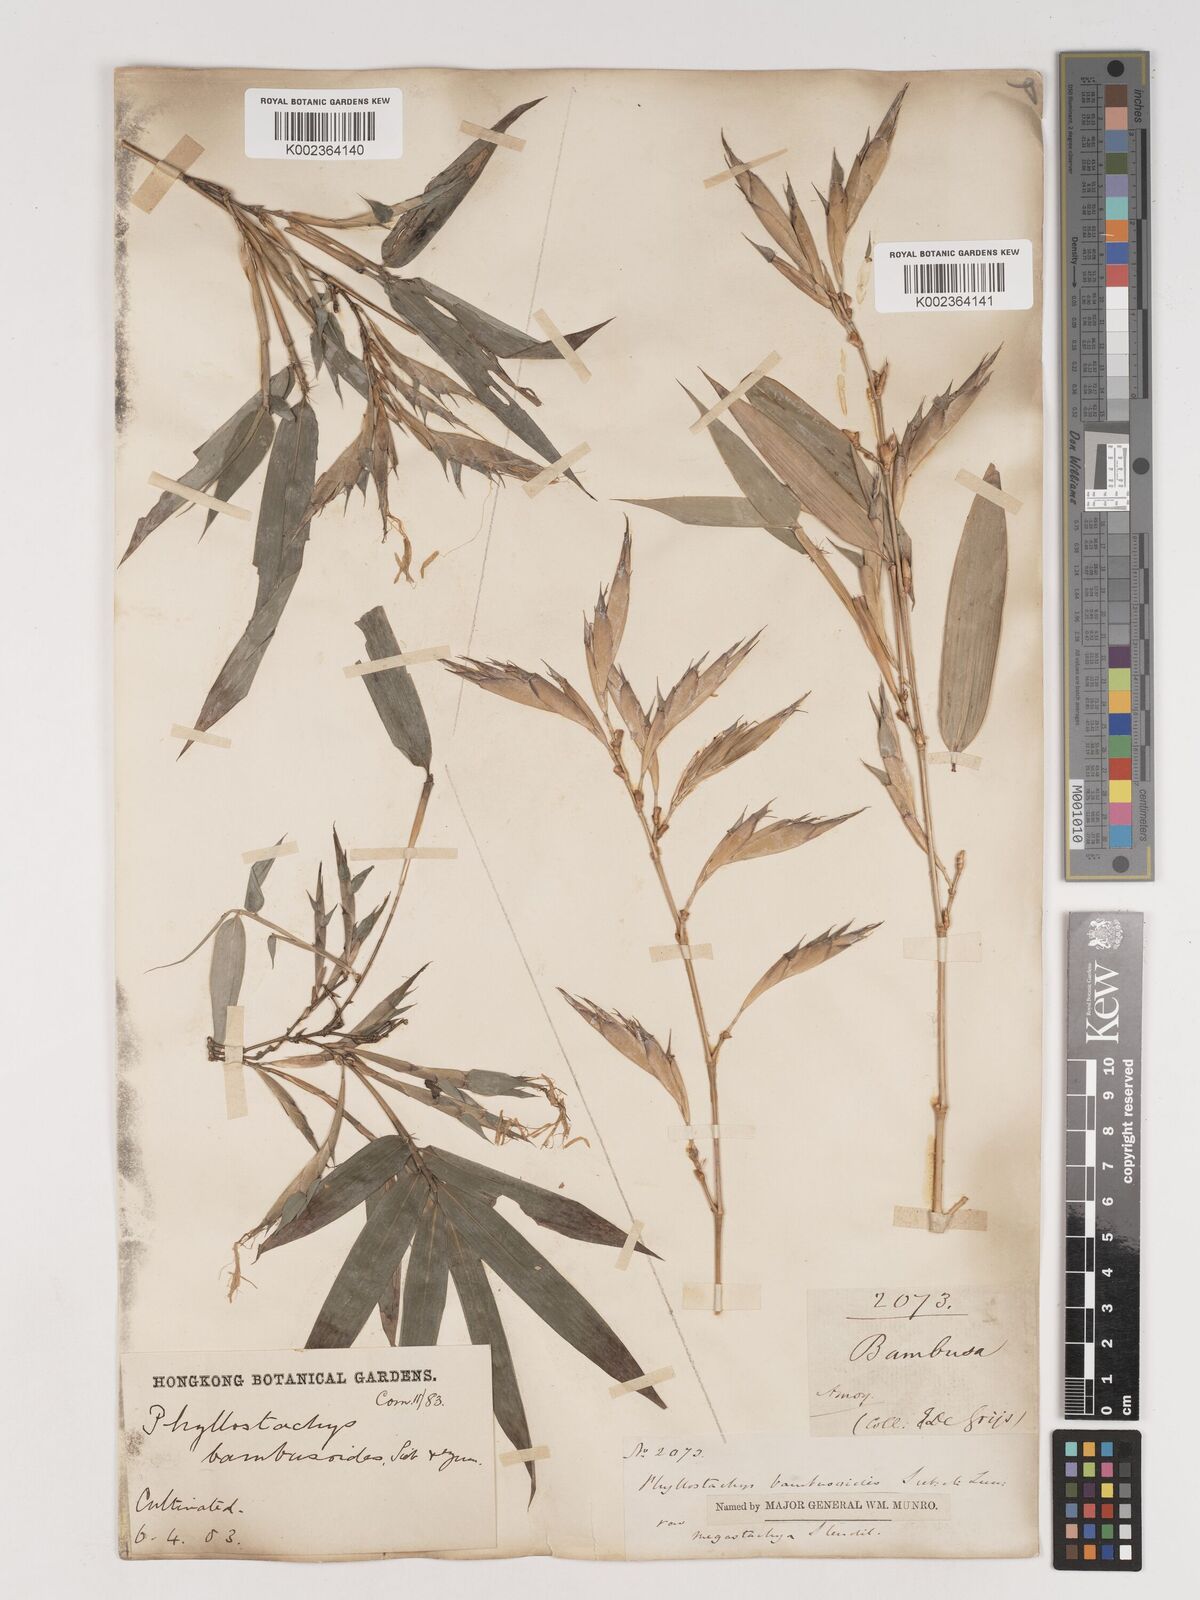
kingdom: Plantae
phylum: Tracheophyta
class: Liliopsida
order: Poales
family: Poaceae
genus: Phyllostachys
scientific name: Phyllostachys reticulata
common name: Bamboo
